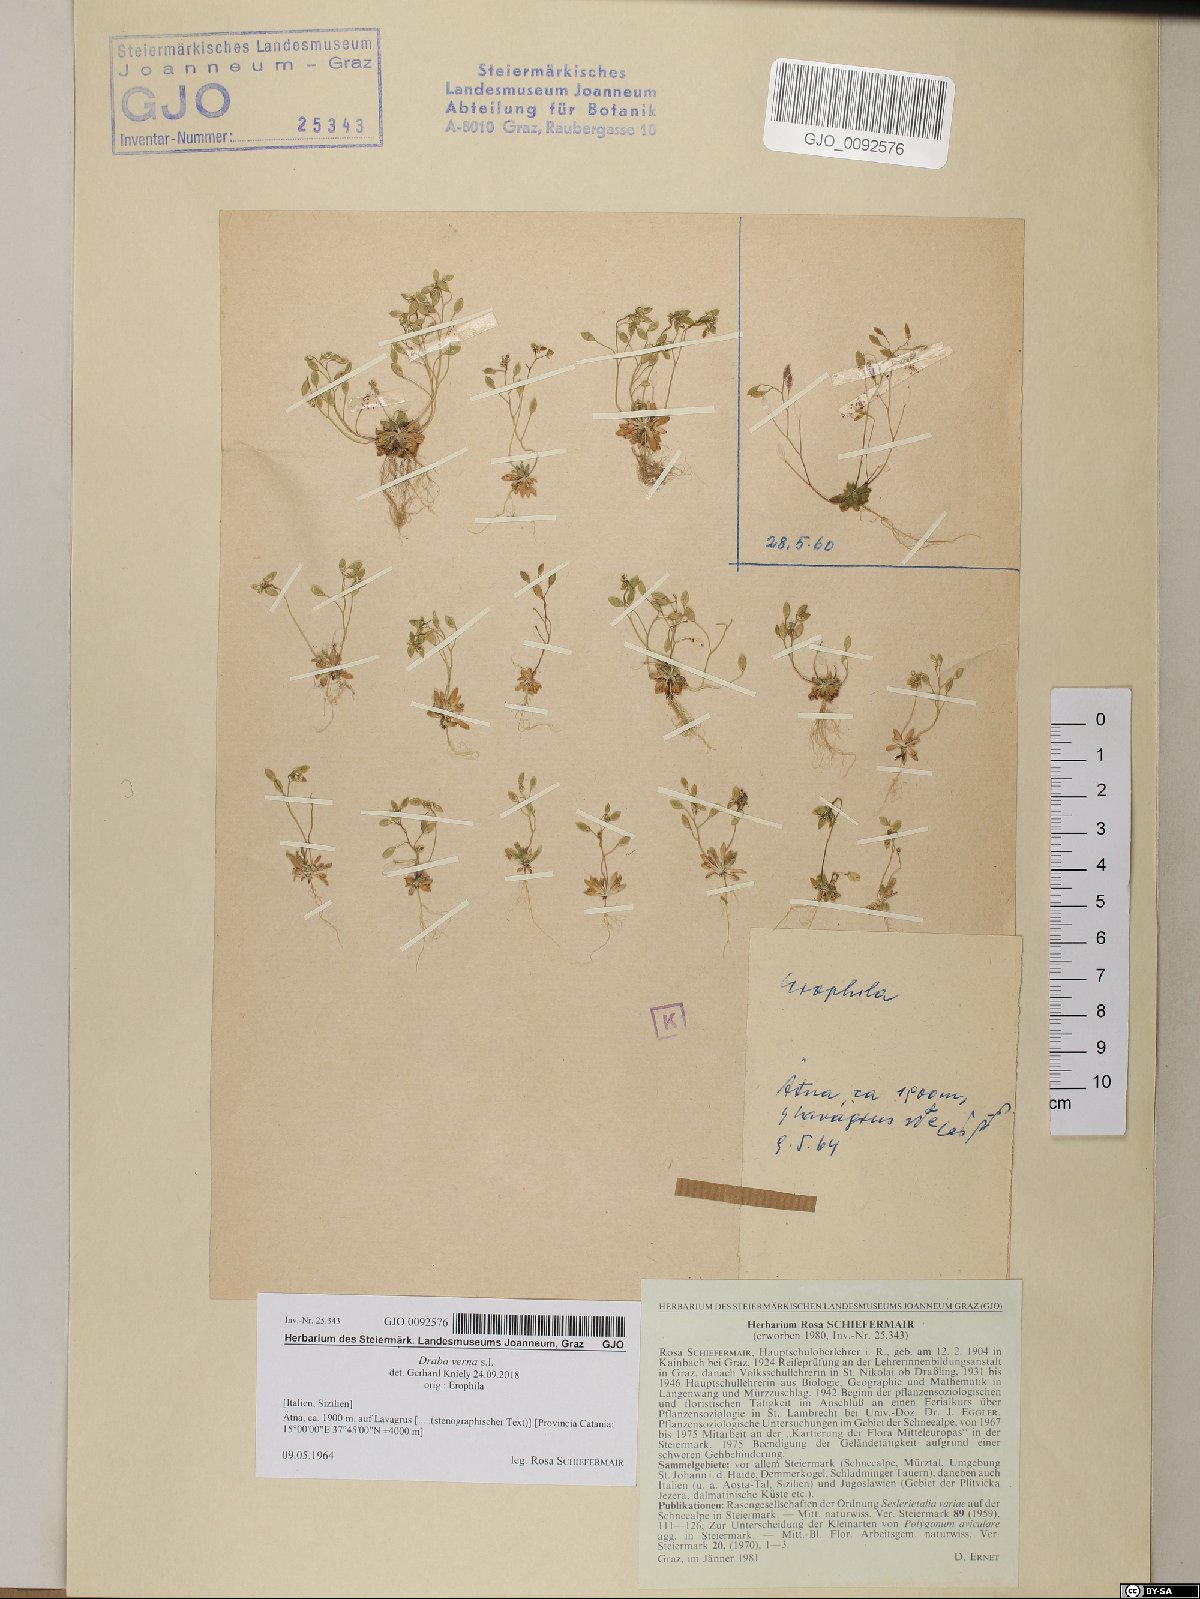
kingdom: Plantae
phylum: Tracheophyta
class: Magnoliopsida
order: Brassicales
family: Brassicaceae
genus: Draba
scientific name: Draba verna
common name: Spring draba
